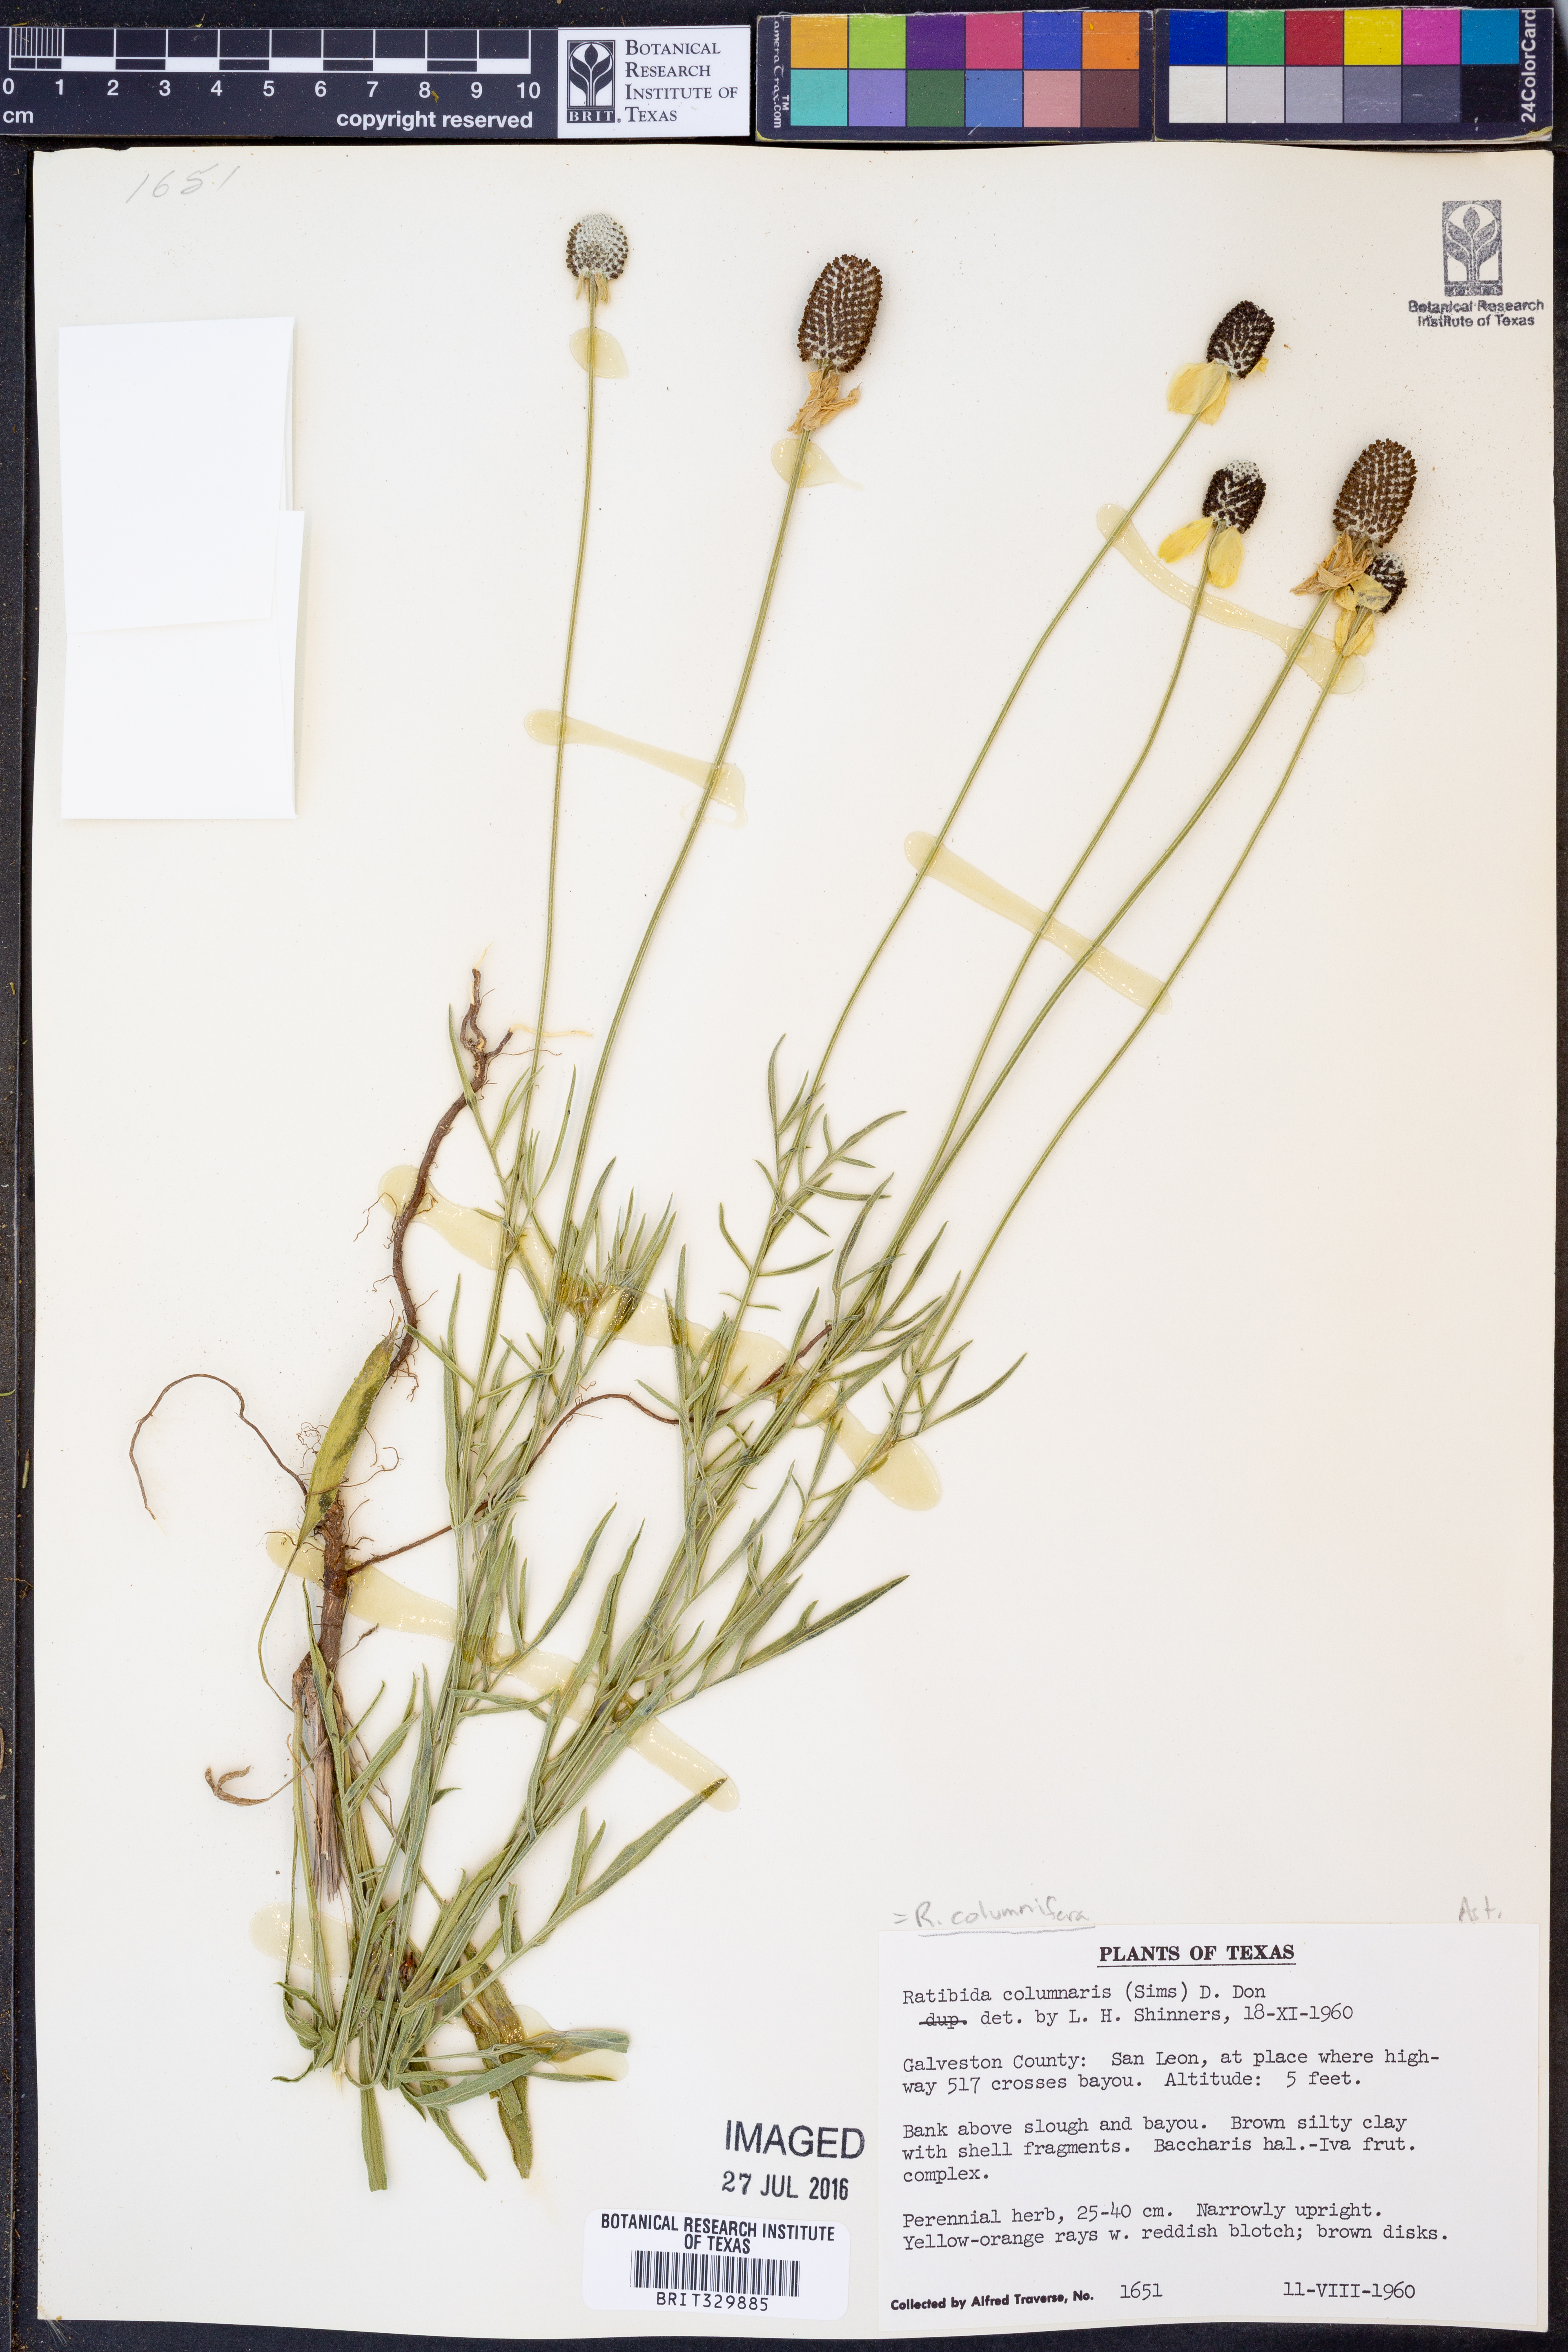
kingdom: Plantae
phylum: Tracheophyta
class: Magnoliopsida
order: Asterales
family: Asteraceae
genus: Ratibida
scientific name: Ratibida columnifera
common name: Prairie coneflower
